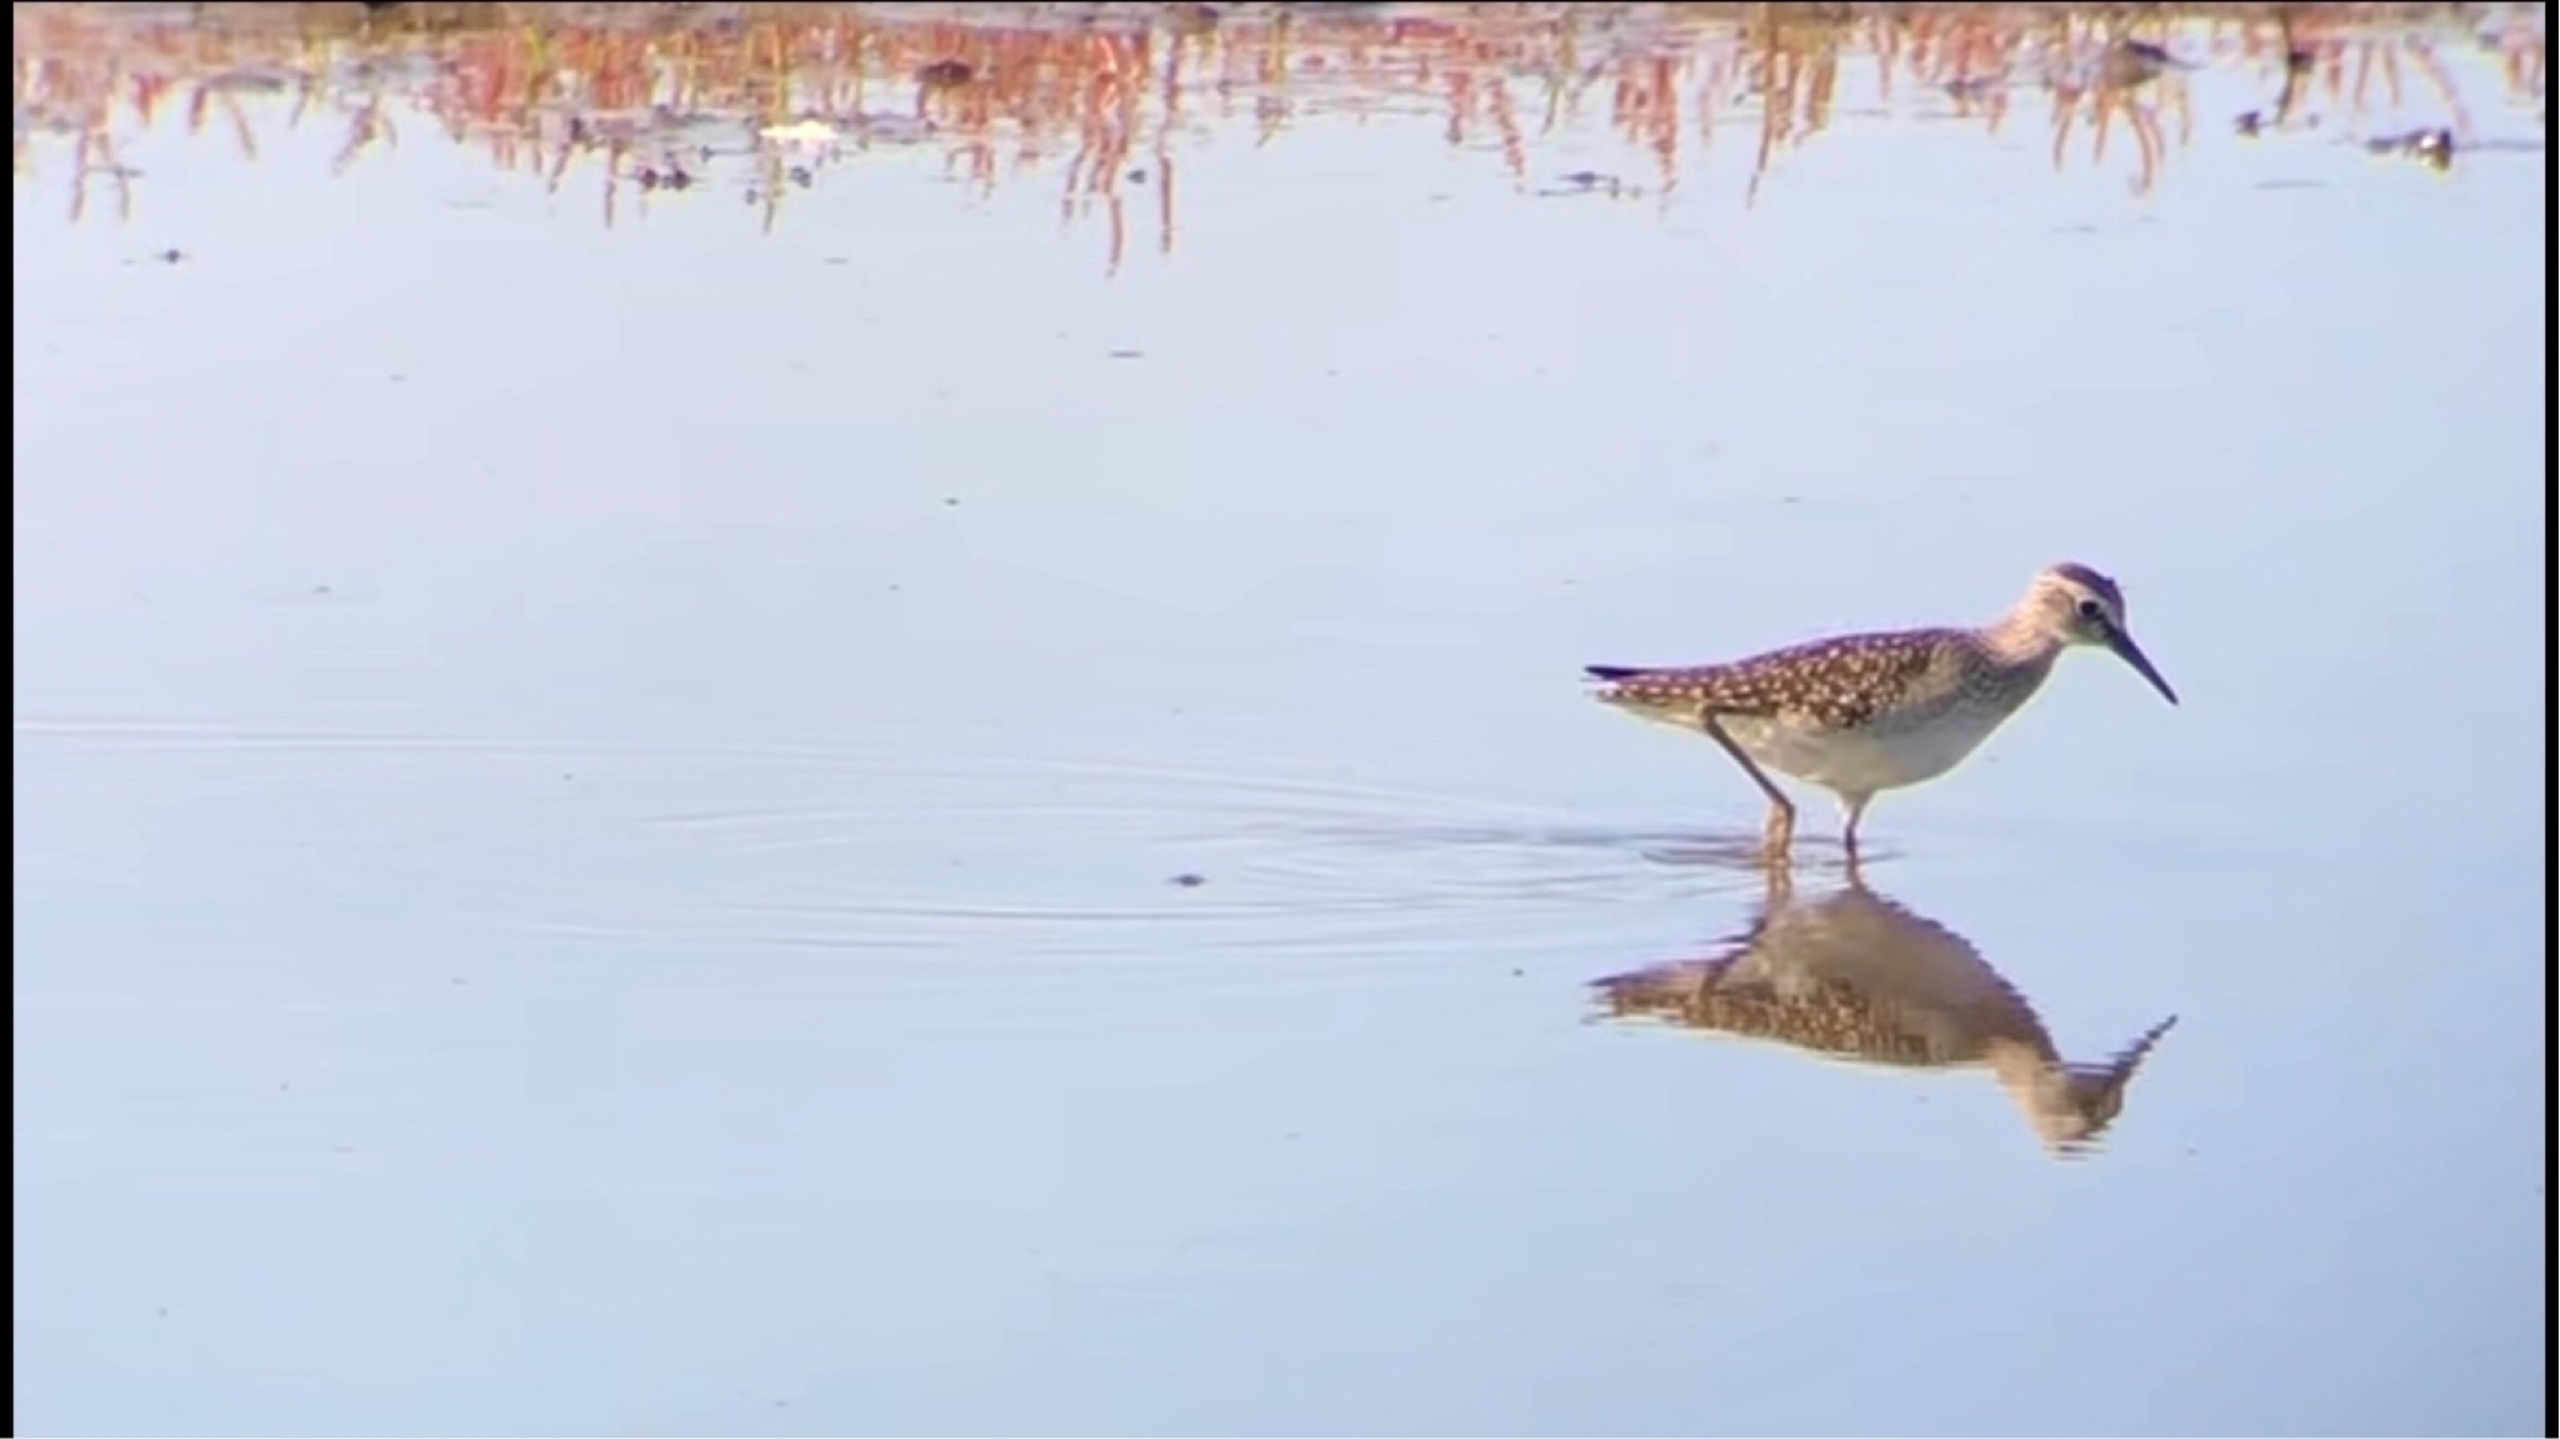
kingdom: Animalia
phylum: Chordata
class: Aves
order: Charadriiformes
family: Scolopacidae
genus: Tringa
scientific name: Tringa glareola
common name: Tinksmed
